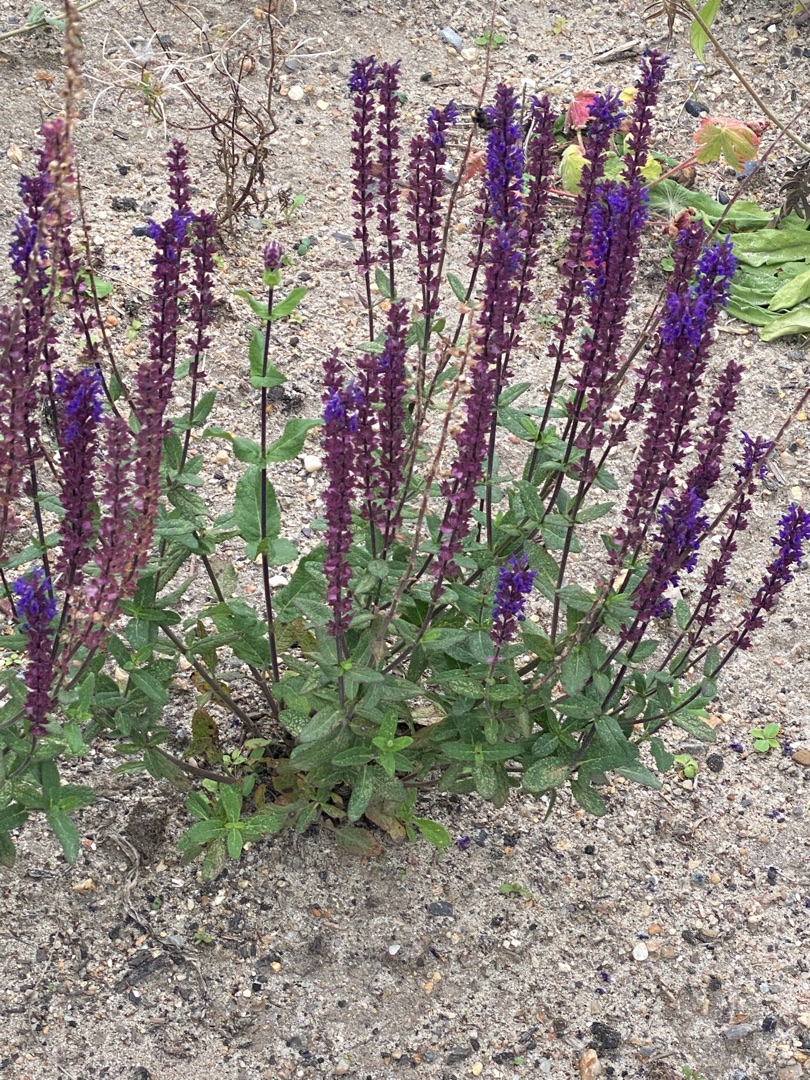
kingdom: Plantae
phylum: Tracheophyta
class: Magnoliopsida
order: Lamiales
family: Lamiaceae
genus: Salvia
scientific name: Salvia nemorosa
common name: Småblomstret salvie
